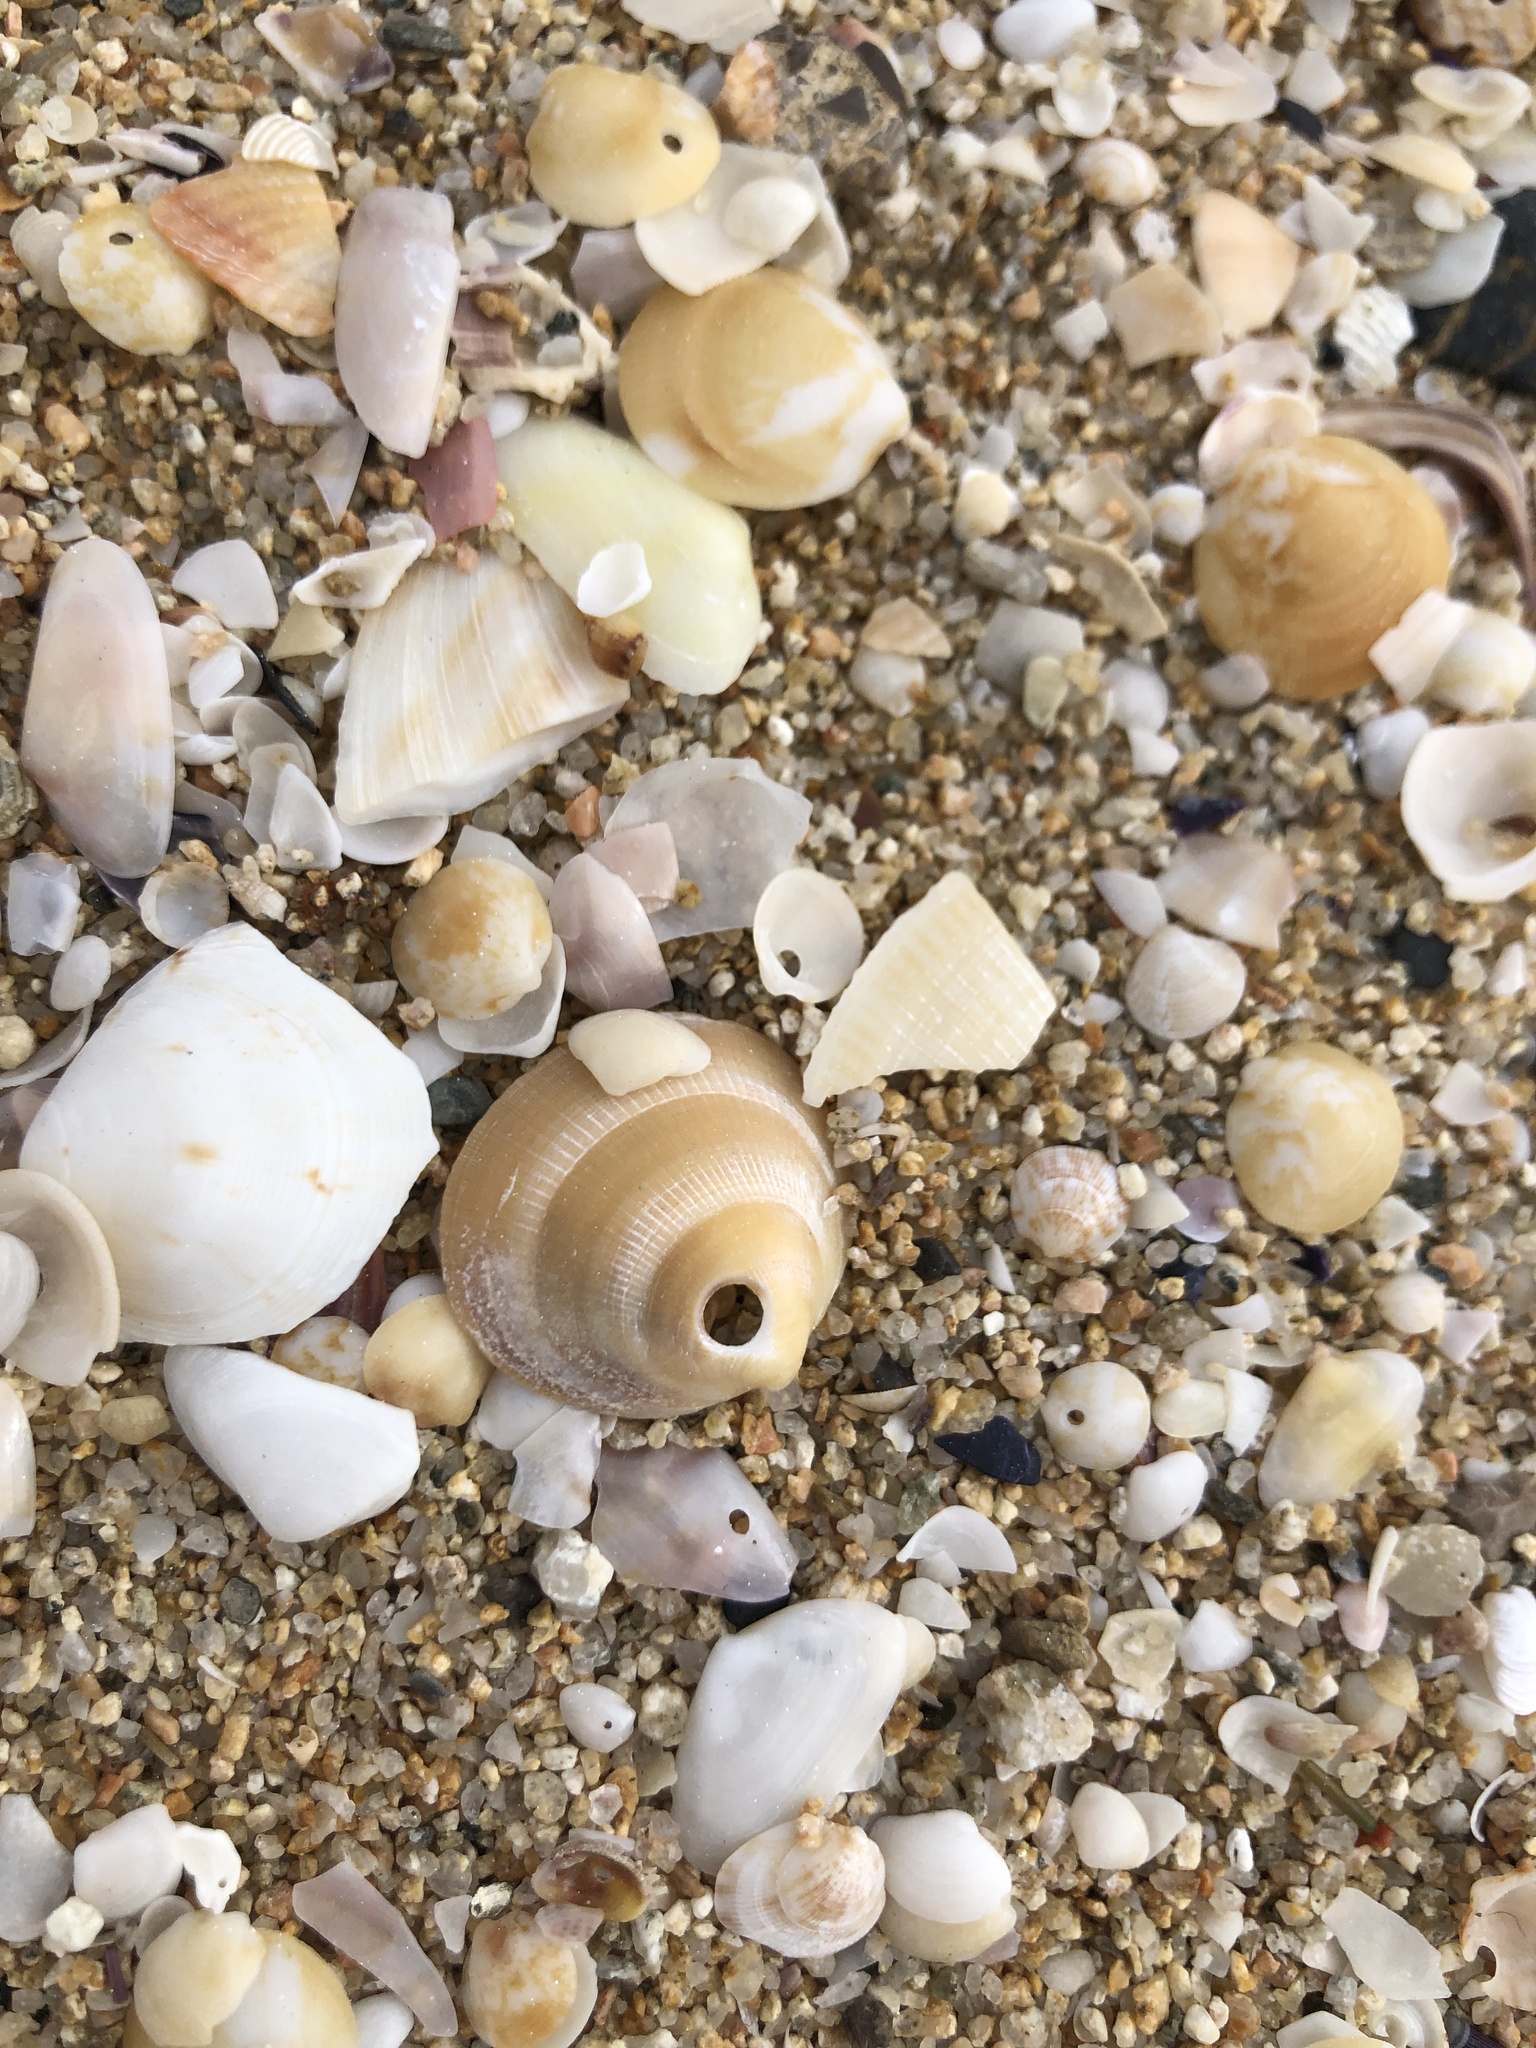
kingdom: Animalia
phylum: Mollusca
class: Bivalvia
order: Arcida
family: Glycymerididae
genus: Glycymeris
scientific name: Glycymeris glycymeris
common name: Dog-cockle
